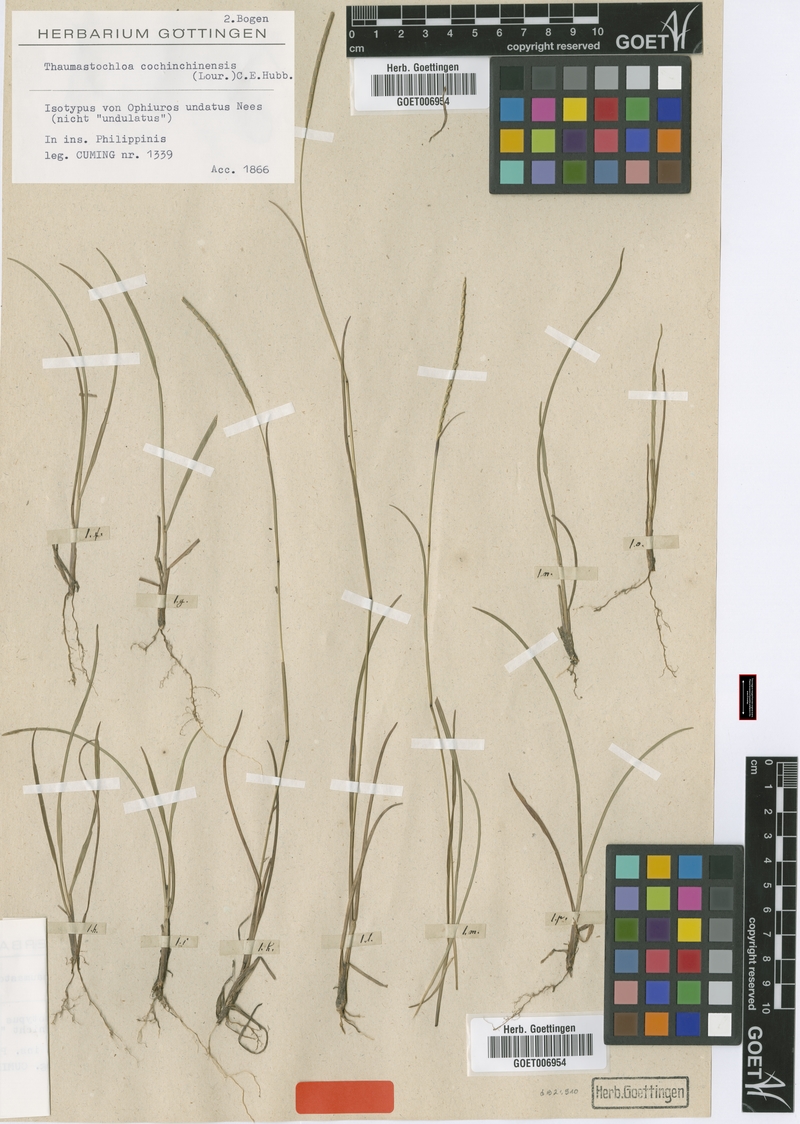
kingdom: Plantae
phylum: Tracheophyta
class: Liliopsida
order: Poales
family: Poaceae
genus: Mnesithea
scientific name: Mnesithea laevis
